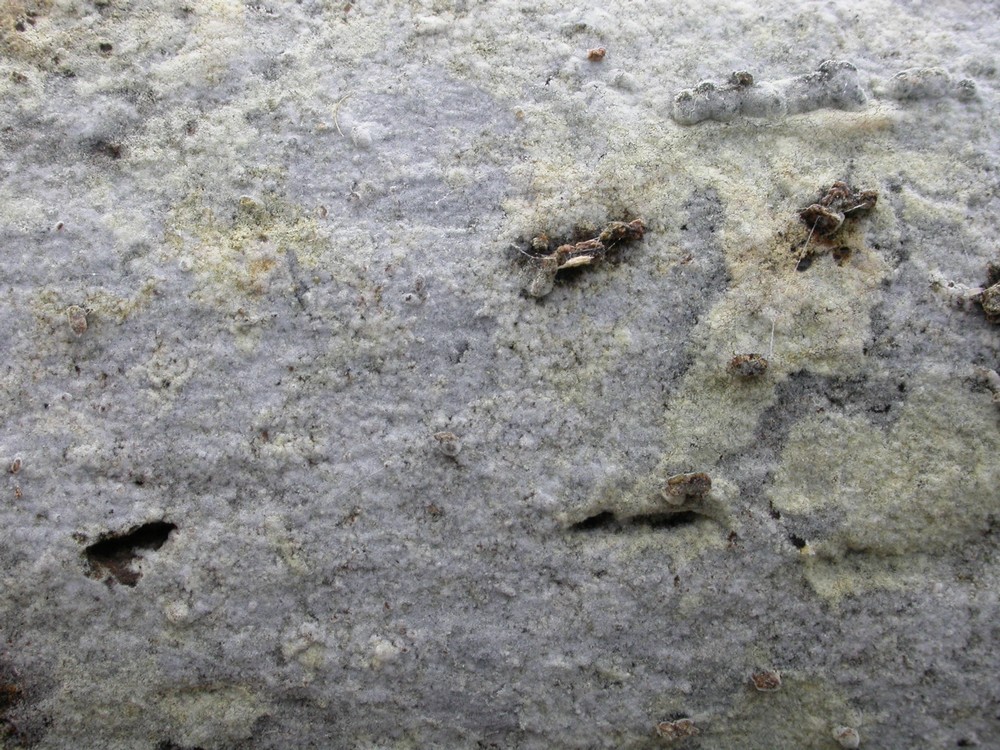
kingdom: Fungi
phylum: Basidiomycota
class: Agaricomycetes
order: Cantharellales
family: Botryobasidiaceae
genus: Botryobasidium
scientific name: Botryobasidium vagum
